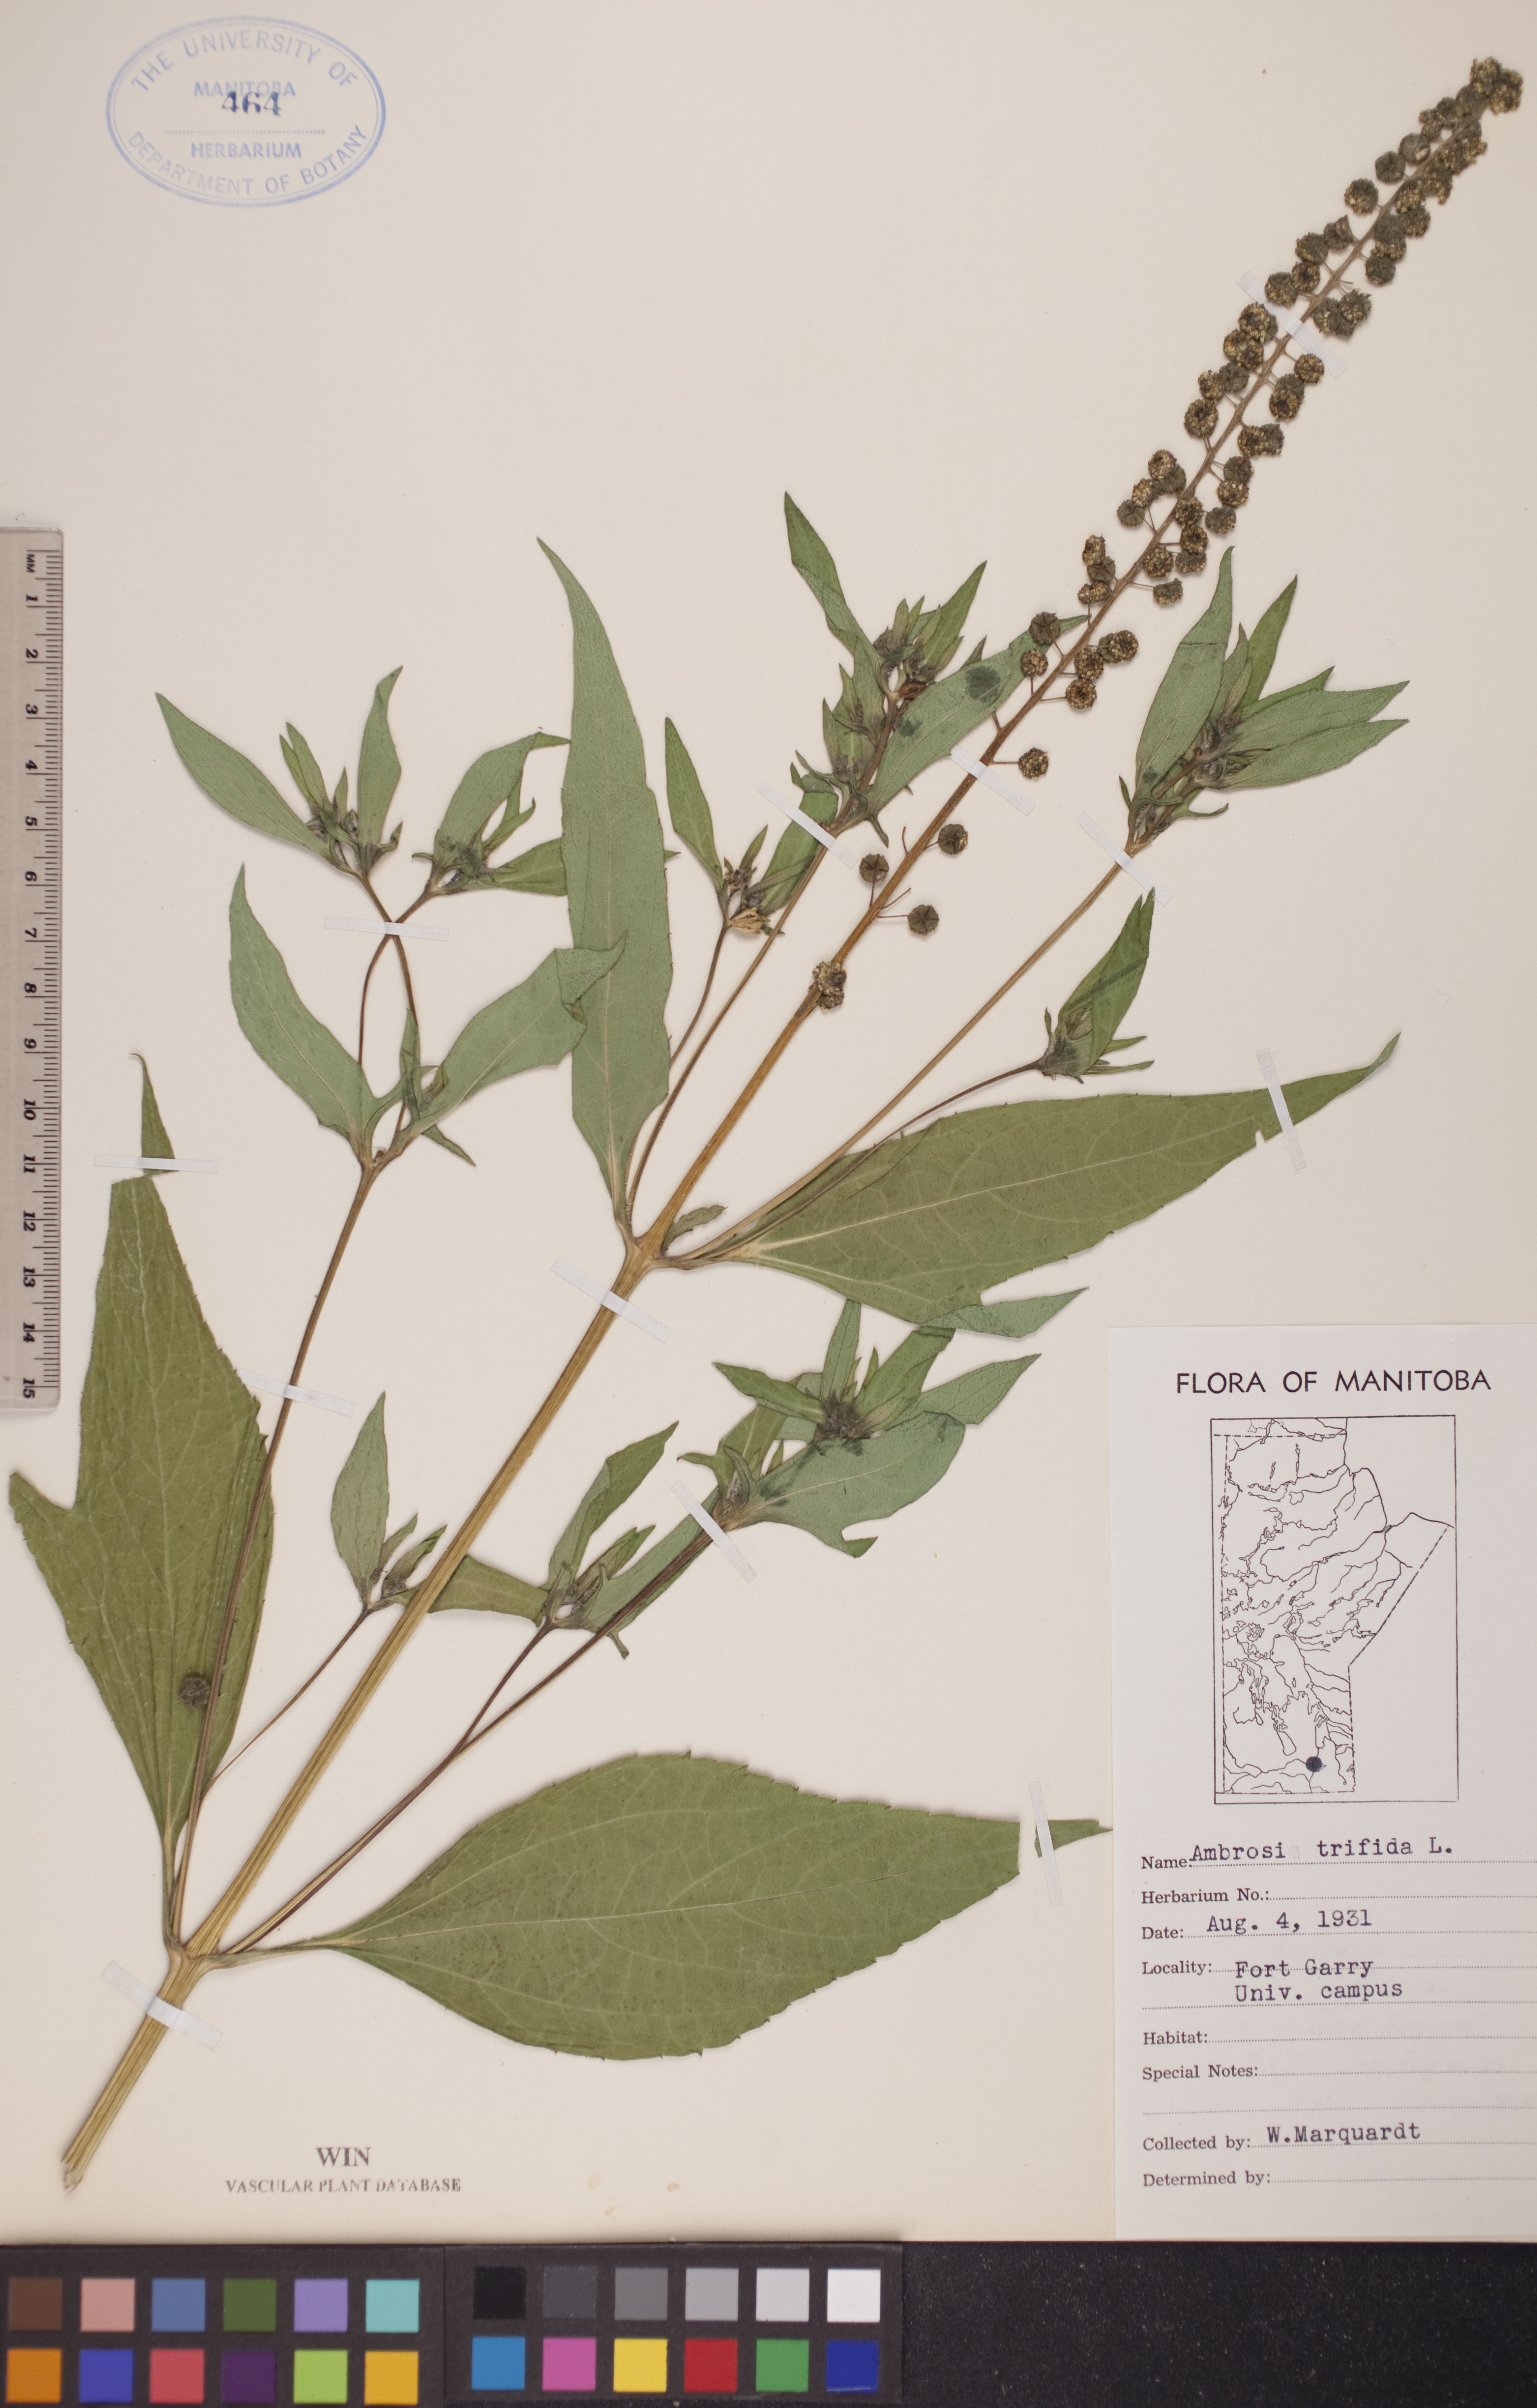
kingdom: Plantae
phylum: Tracheophyta
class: Magnoliopsida
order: Asterales
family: Asteraceae
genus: Ambrosia
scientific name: Ambrosia trifida
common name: Giant ragweed
